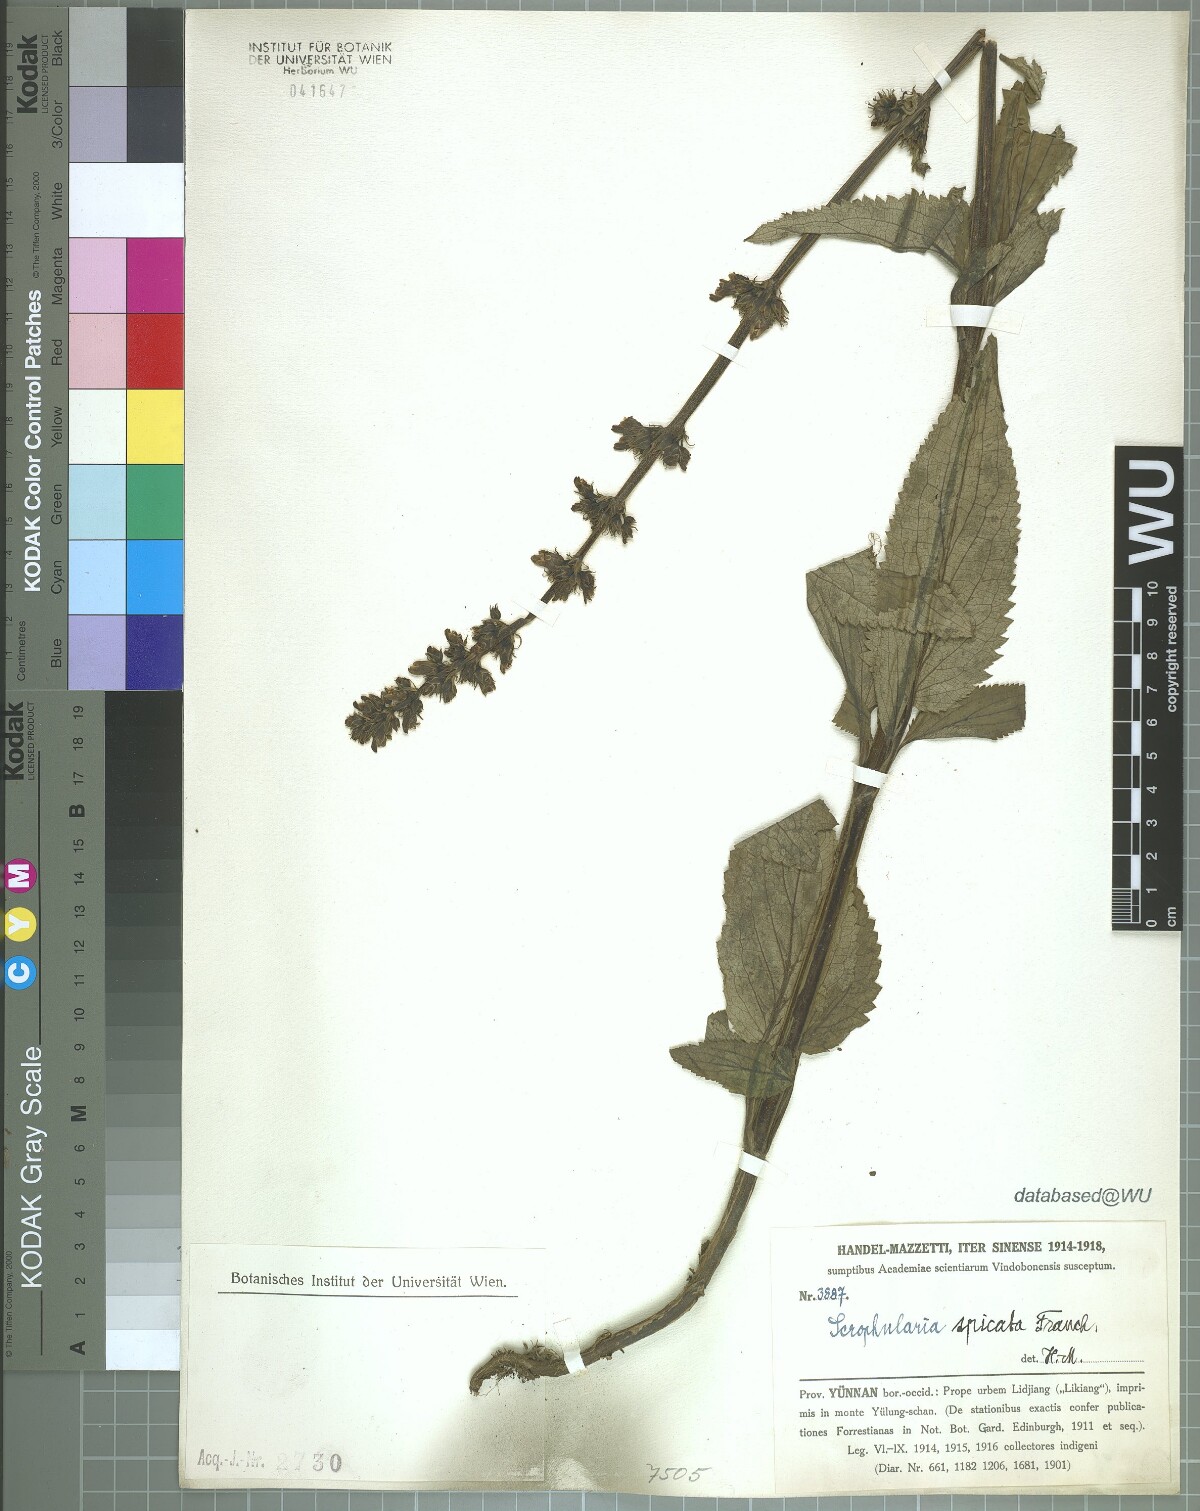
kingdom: Plantae
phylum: Tracheophyta
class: Magnoliopsida
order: Lamiales
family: Scrophulariaceae
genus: Scrophularia
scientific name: Scrophularia spicata
